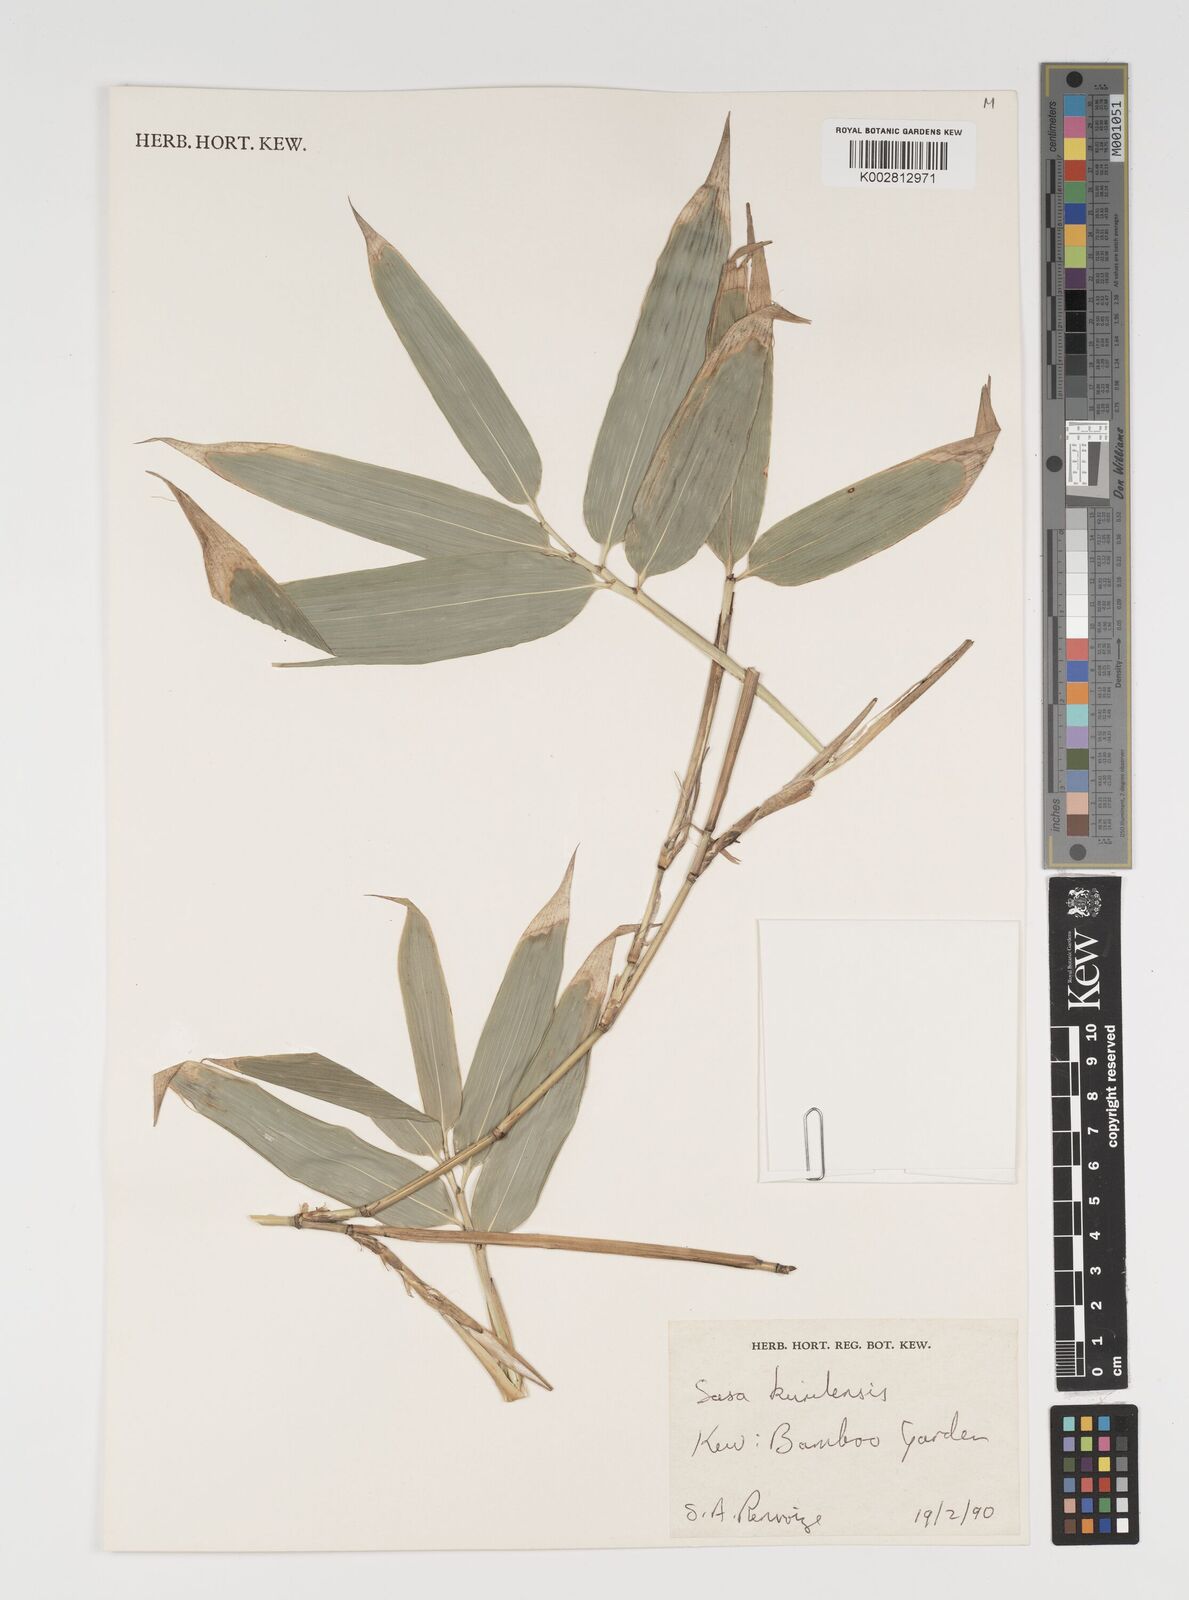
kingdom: Plantae
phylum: Tracheophyta
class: Liliopsida
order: Poales
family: Poaceae
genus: Sasa
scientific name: Sasa kurilensis
